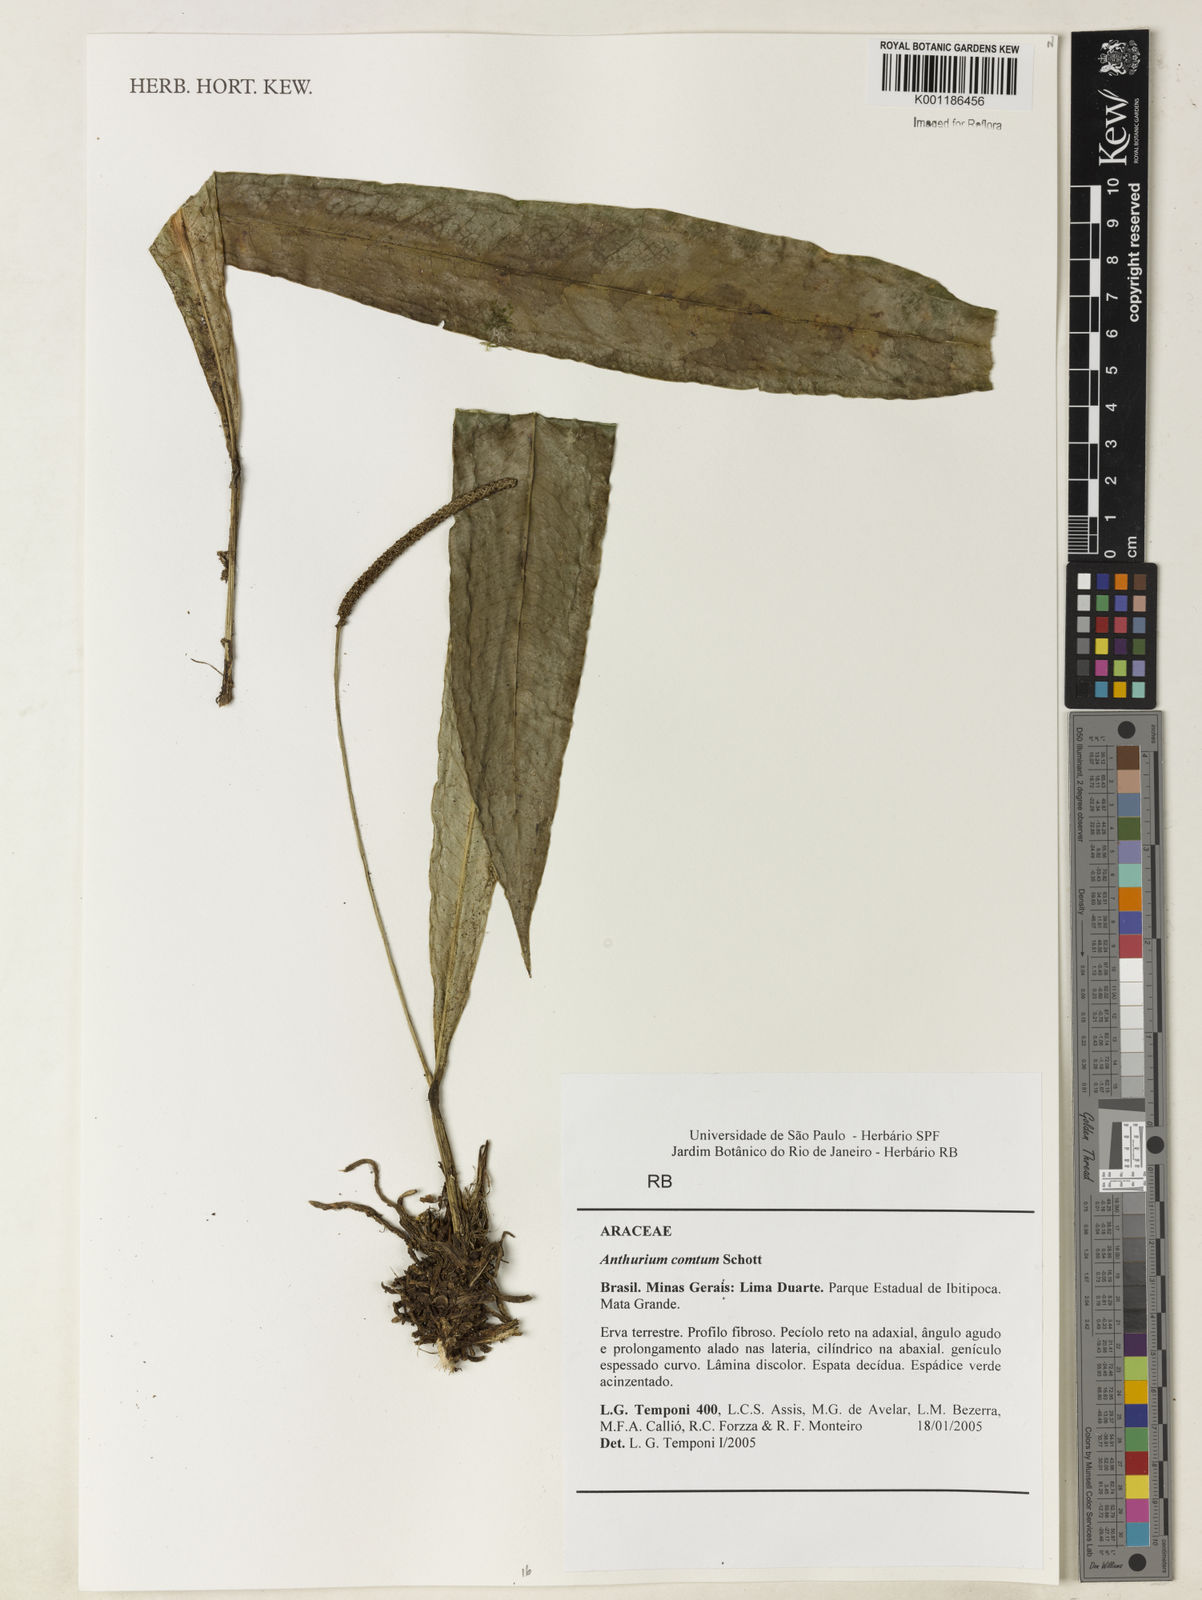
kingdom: Plantae
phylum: Tracheophyta
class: Liliopsida
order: Alismatales
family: Araceae
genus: Anthurium
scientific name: Anthurium comtum
